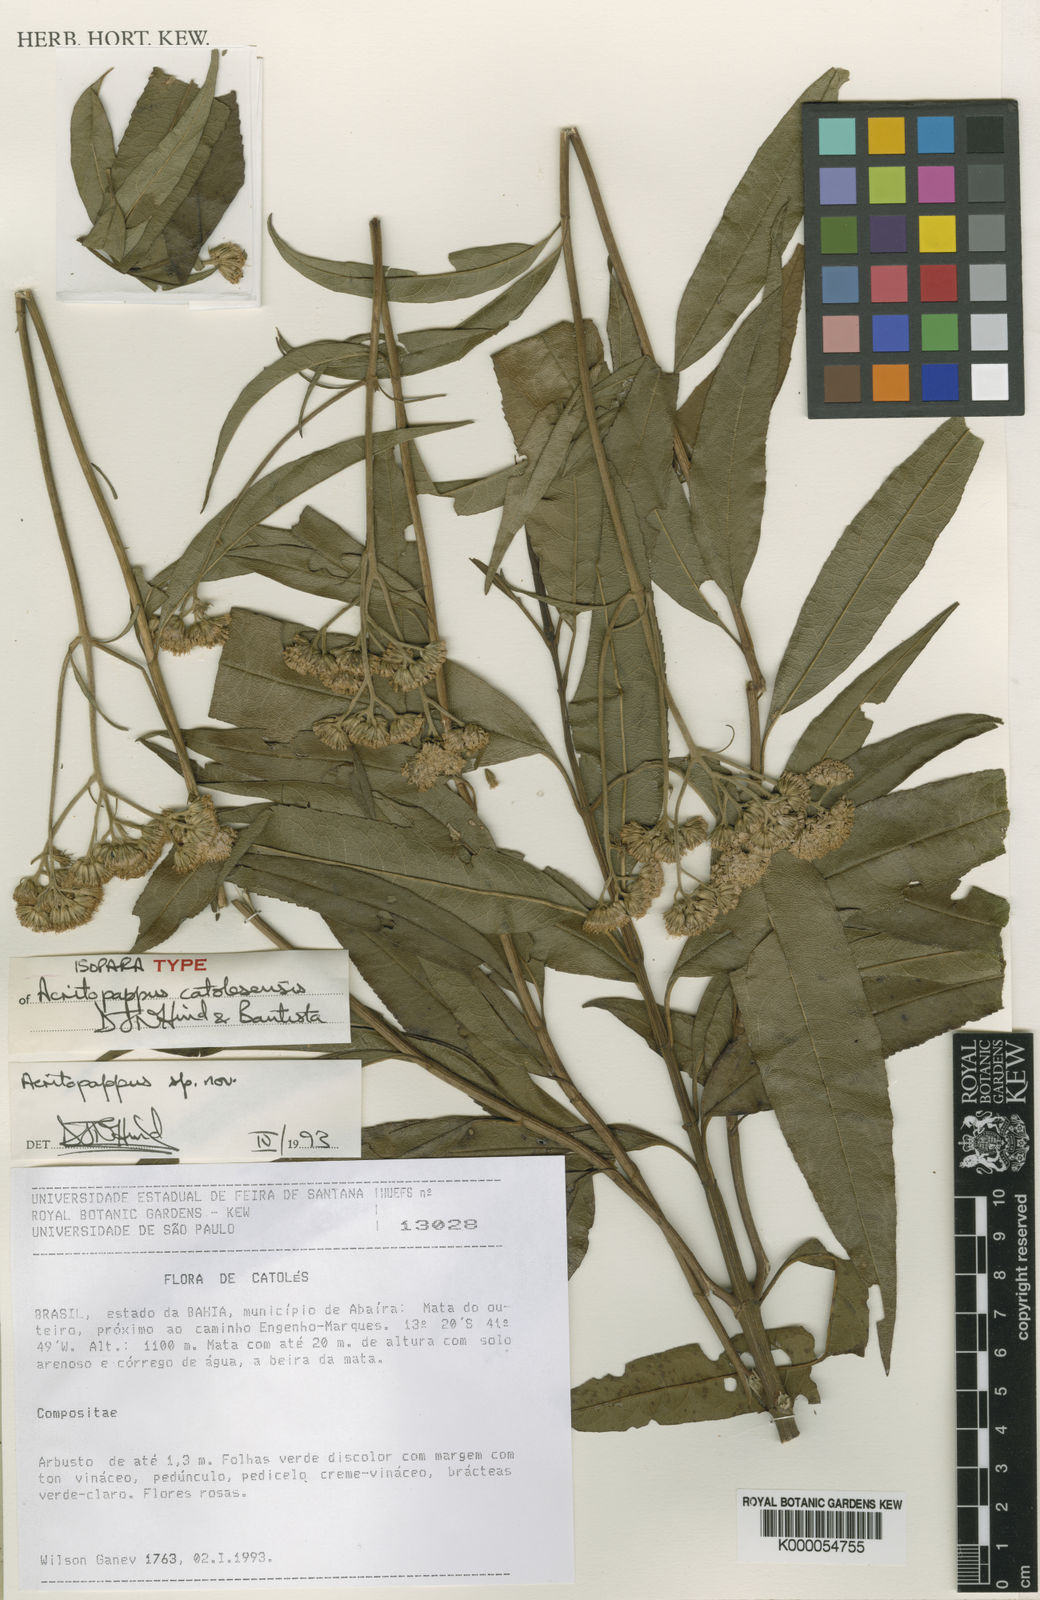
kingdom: Plantae
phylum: Tracheophyta
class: Magnoliopsida
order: Asterales
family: Asteraceae
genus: Acritopappus
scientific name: Acritopappus catolesensis
